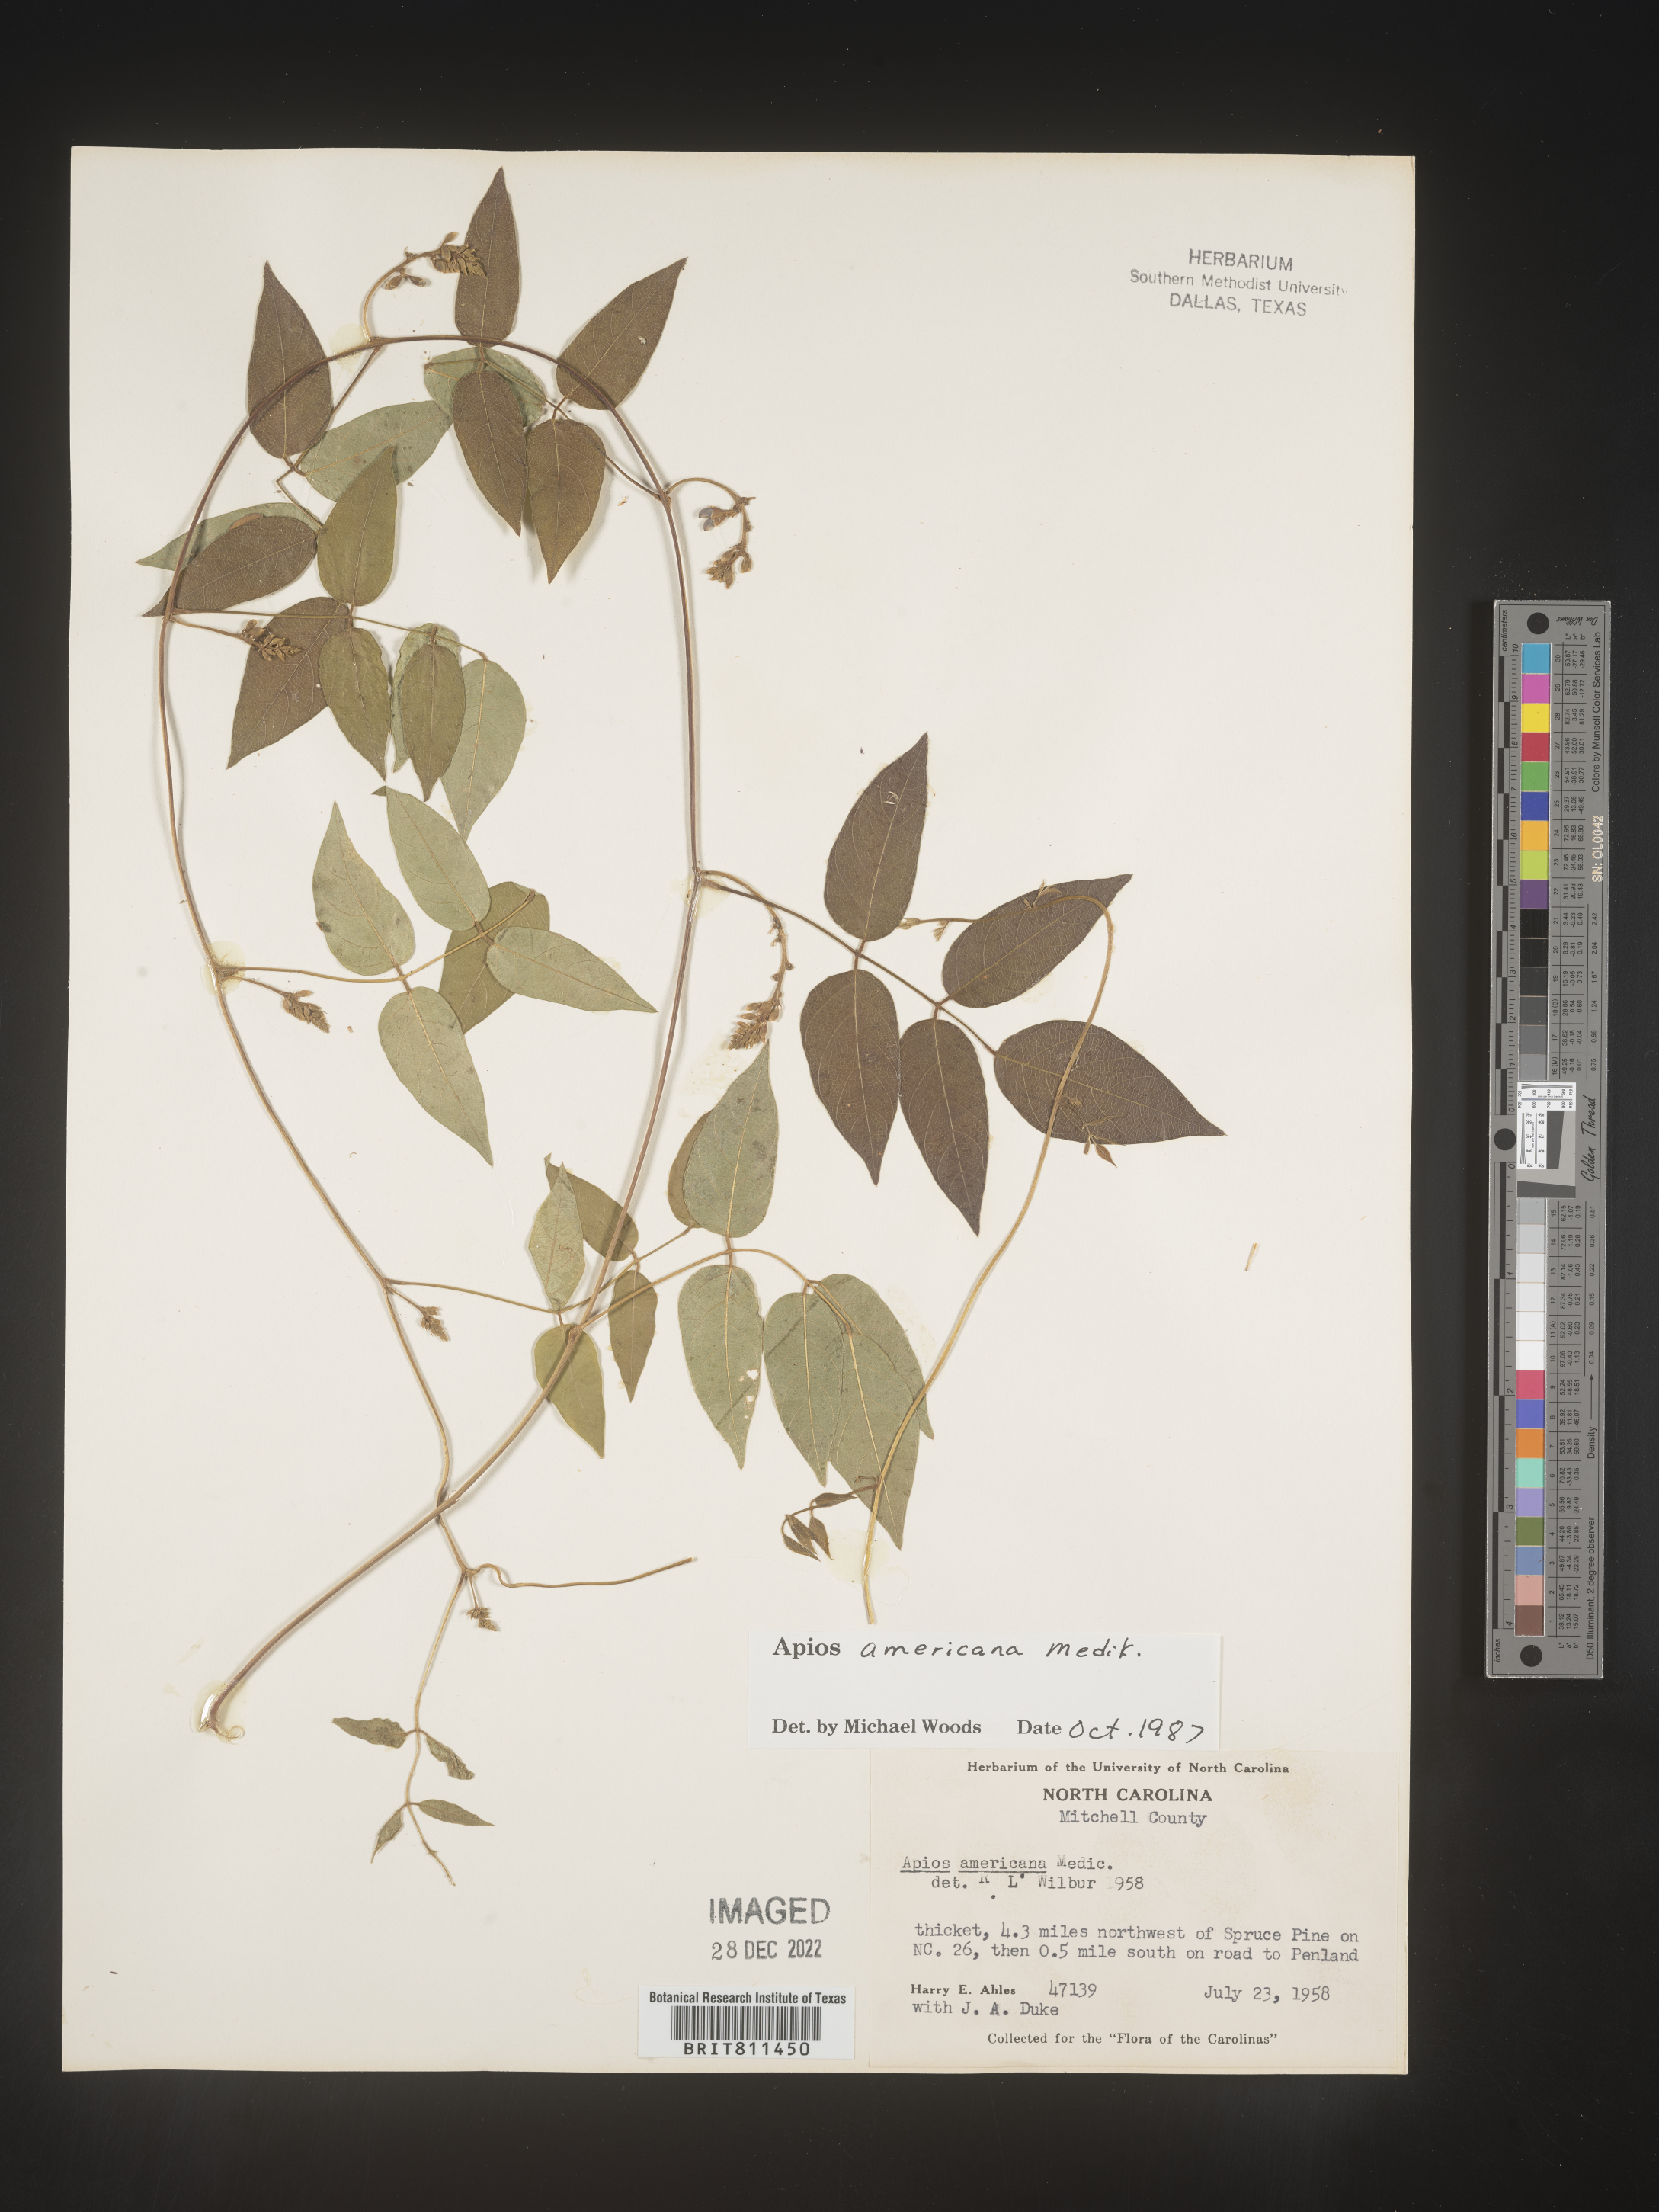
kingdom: Plantae
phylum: Tracheophyta
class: Magnoliopsida
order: Fabales
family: Fabaceae
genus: Apios
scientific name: Apios americana
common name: American potato-bean
